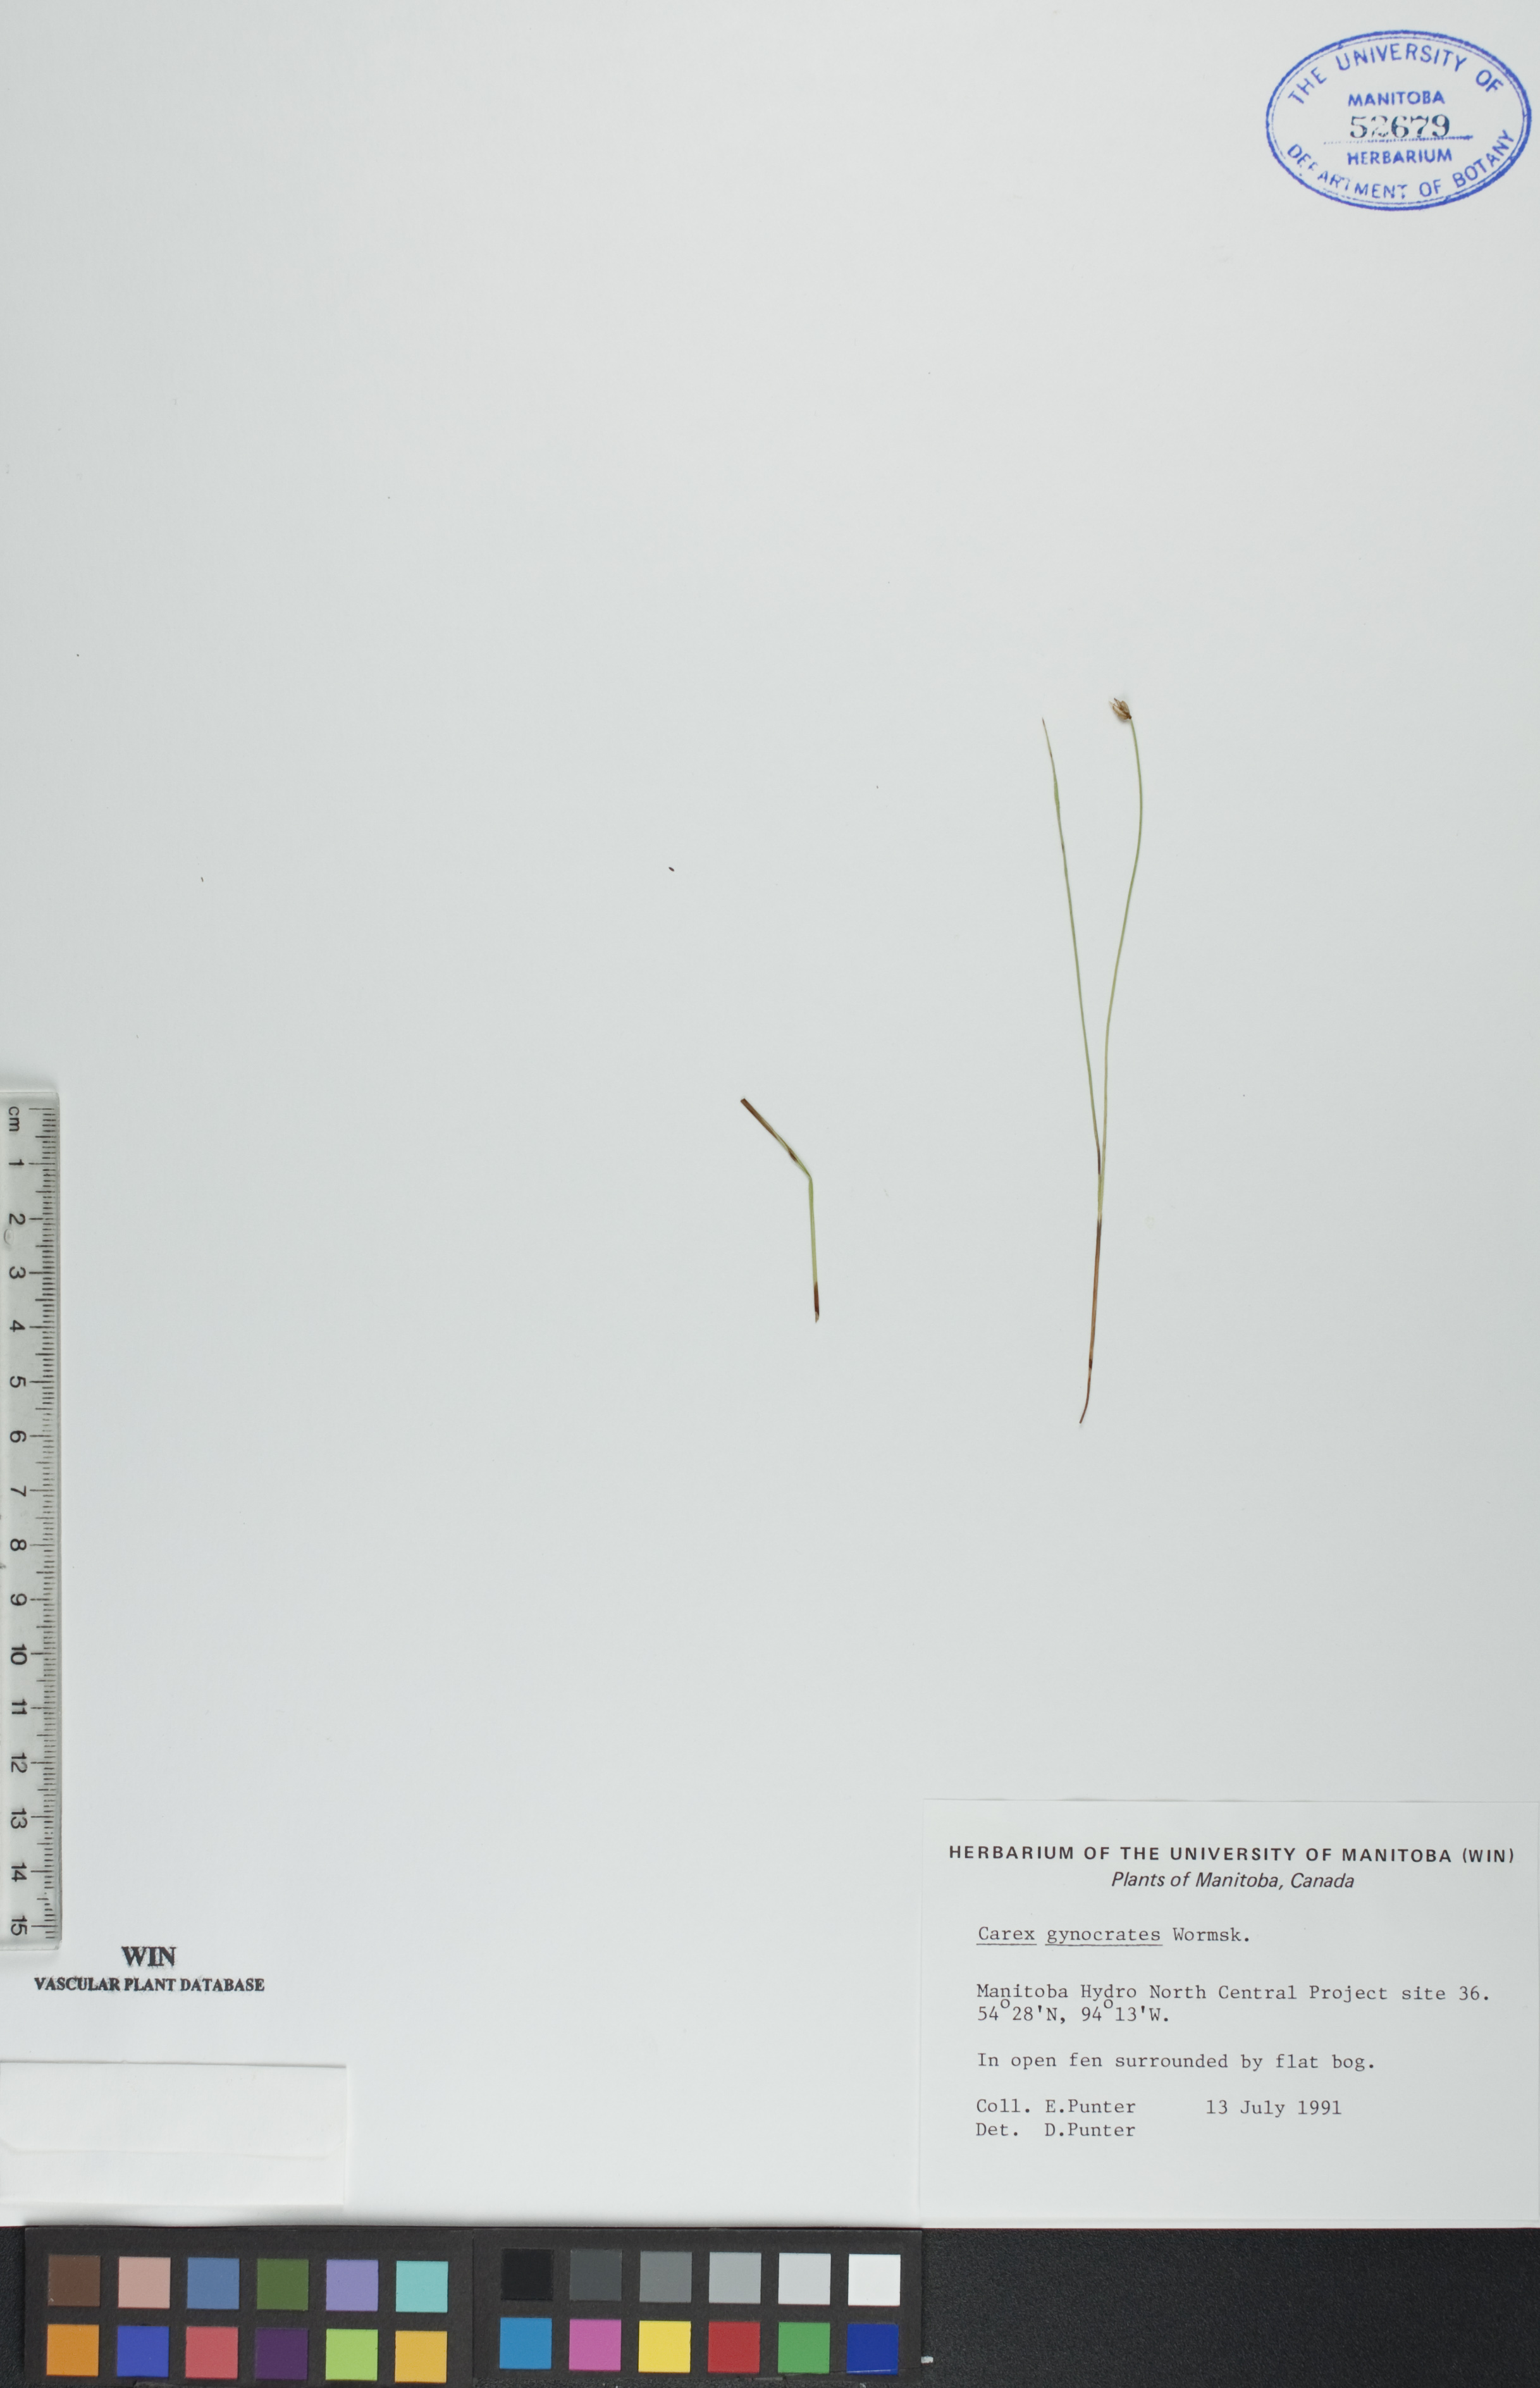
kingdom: Plantae
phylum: Tracheophyta
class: Liliopsida
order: Poales
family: Cyperaceae
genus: Carex
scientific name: Carex nardina
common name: Nard sedge
